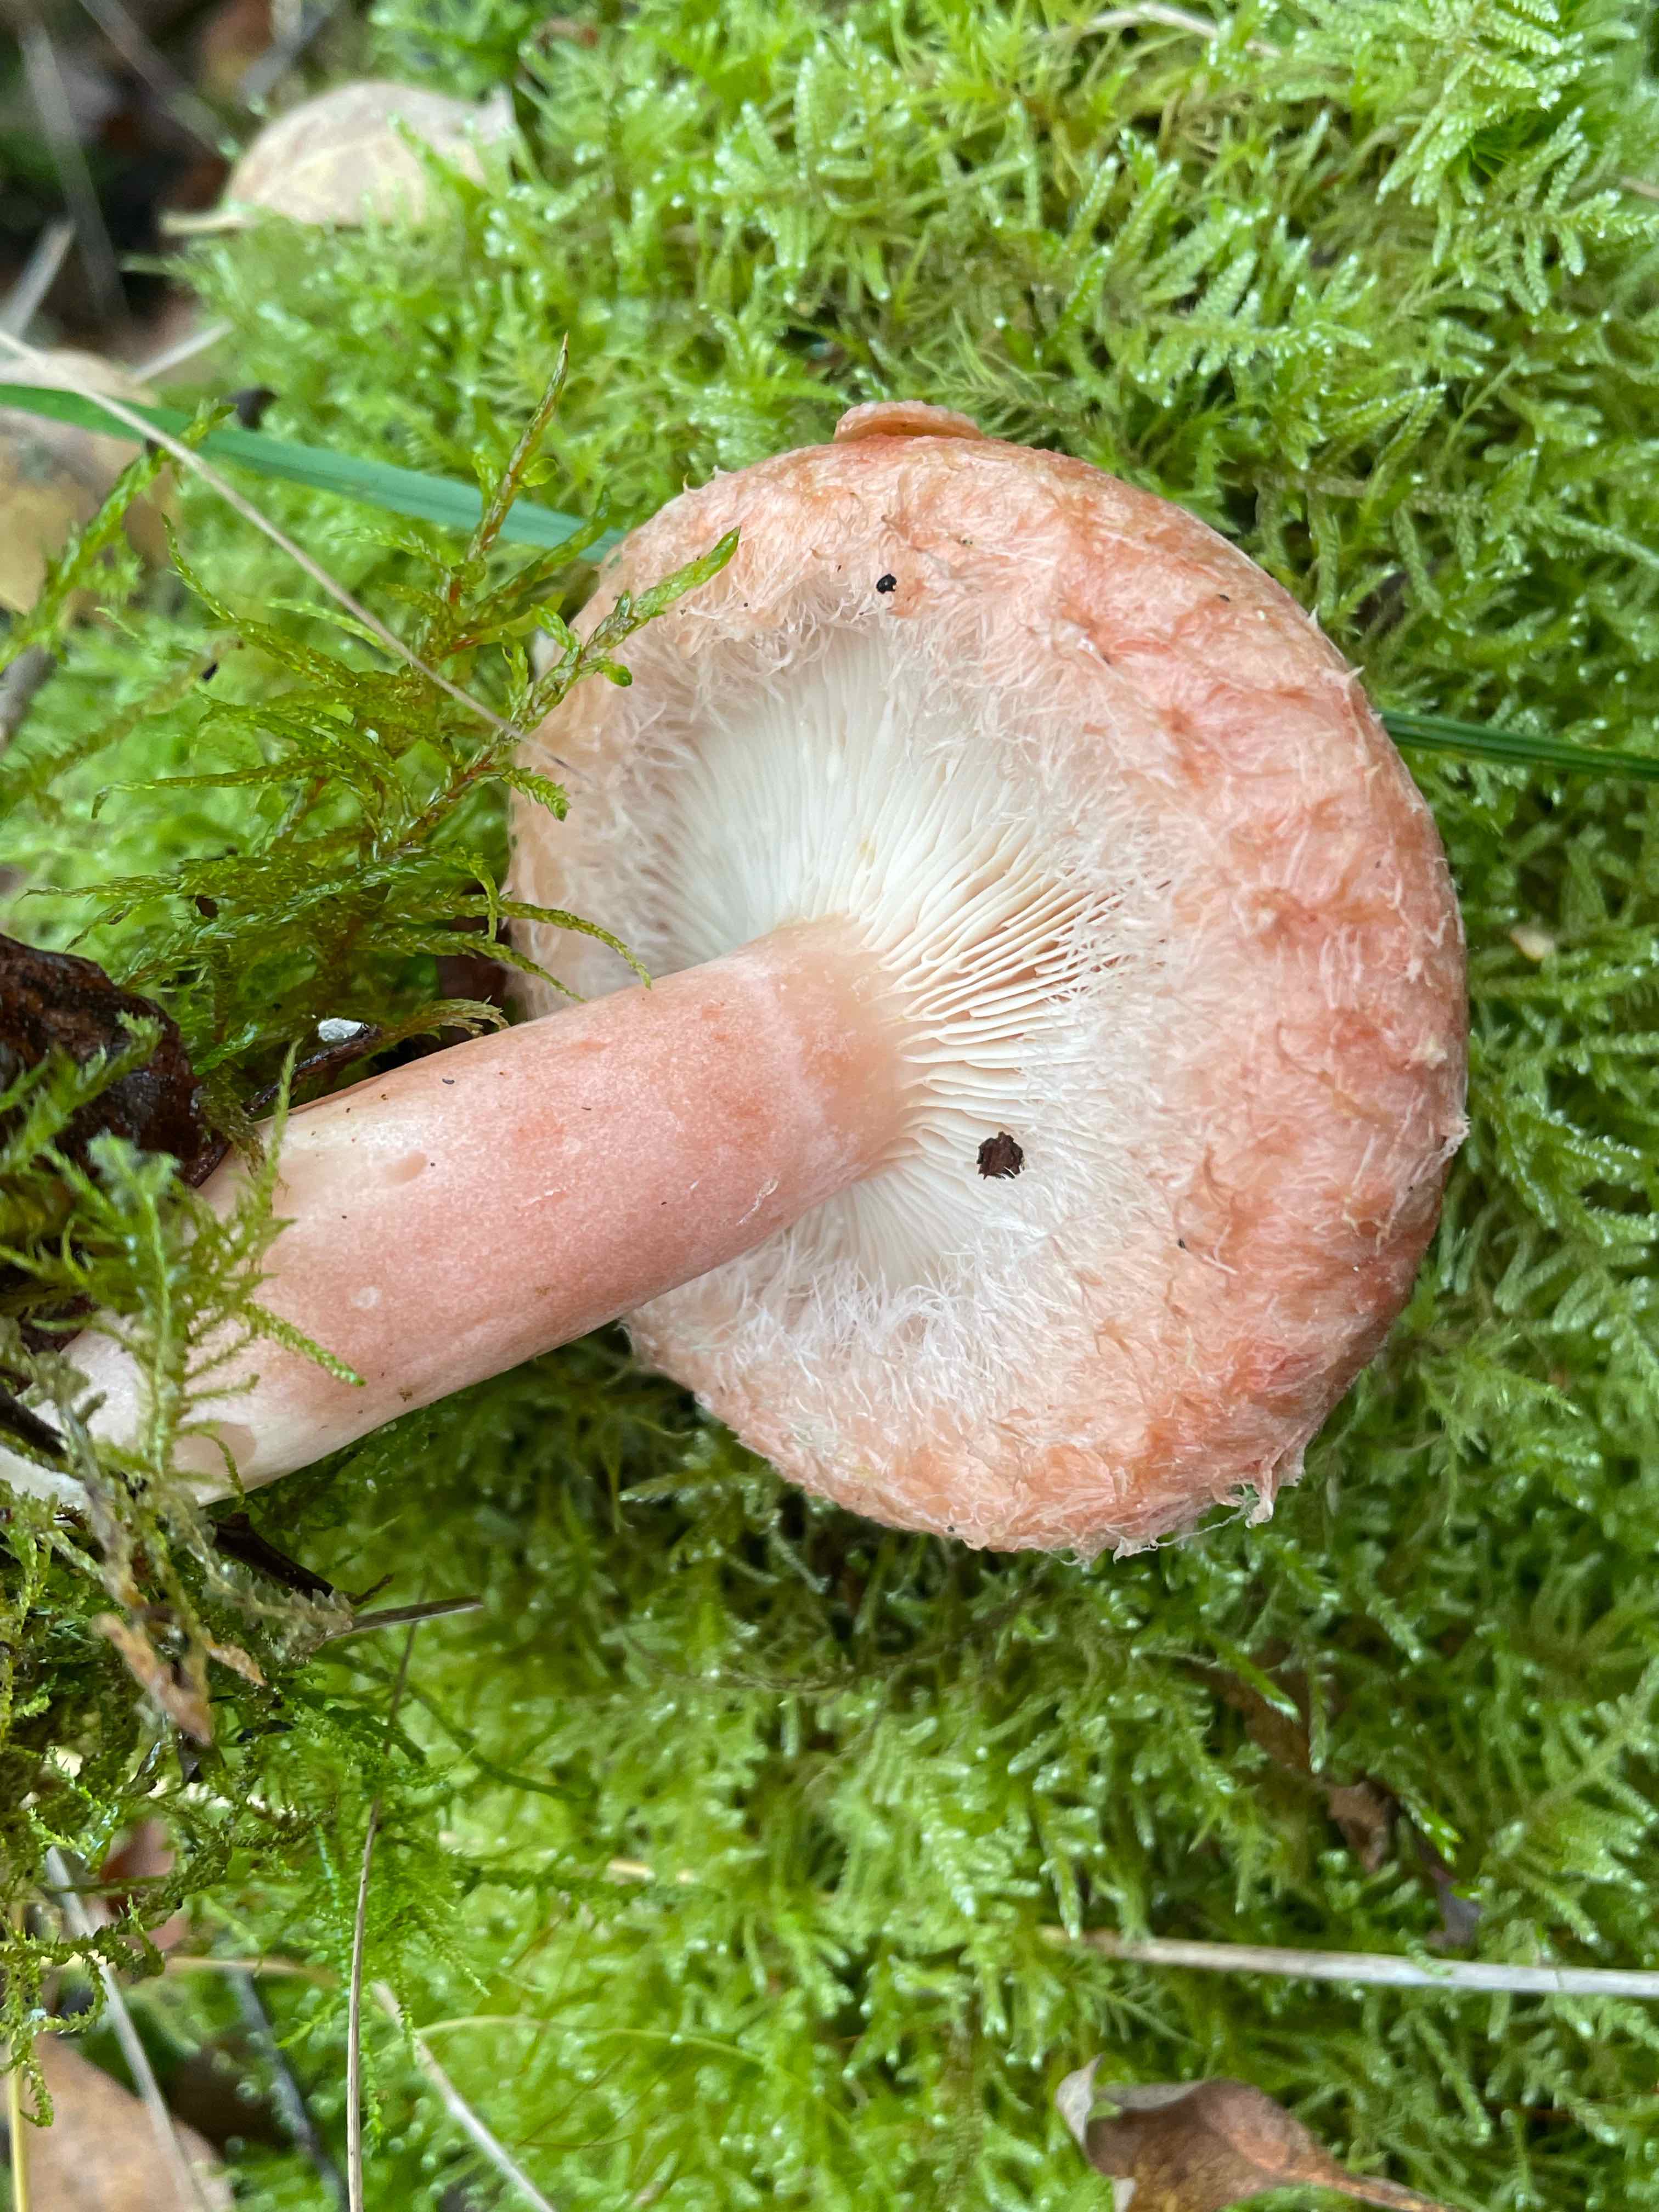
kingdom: Fungi
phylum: Basidiomycota
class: Agaricomycetes
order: Russulales
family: Russulaceae
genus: Lactarius
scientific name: Lactarius torminosus
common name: skægget mælkehat
